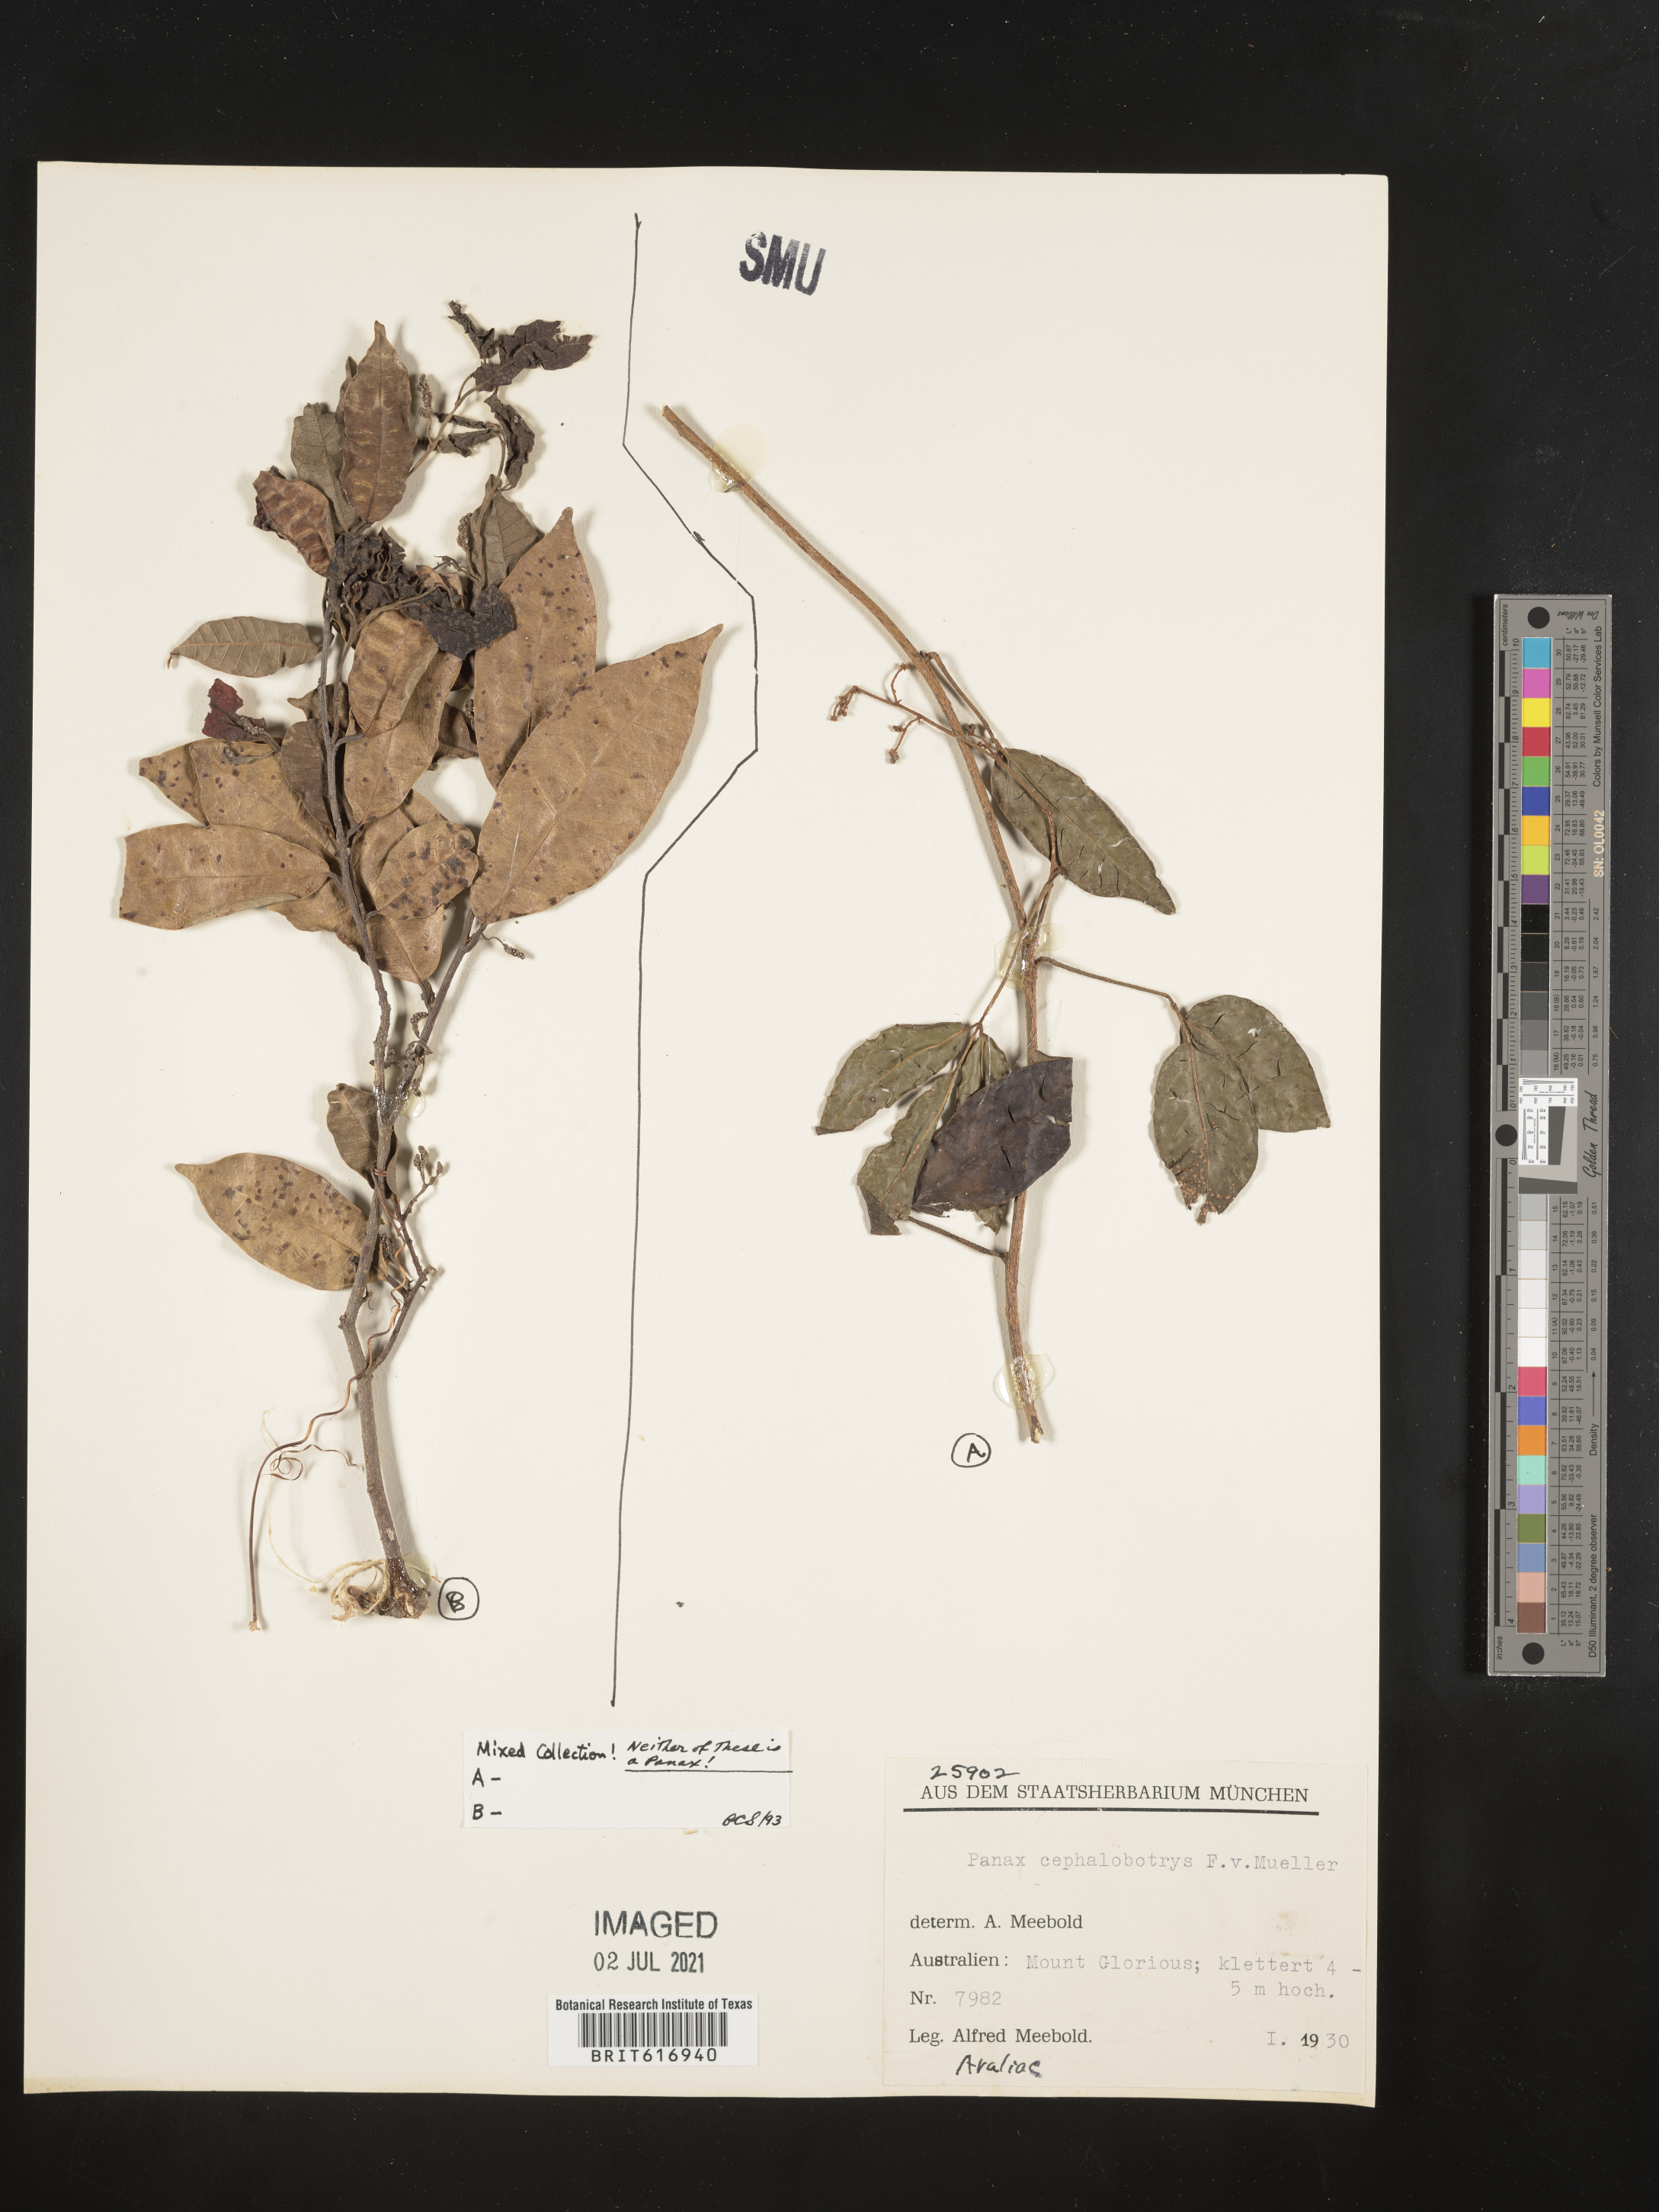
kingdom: Plantae
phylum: Tracheophyta
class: Magnoliopsida
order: Apiales
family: Araliaceae
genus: Cephalaralia
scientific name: Cephalaralia cephalobotrys
